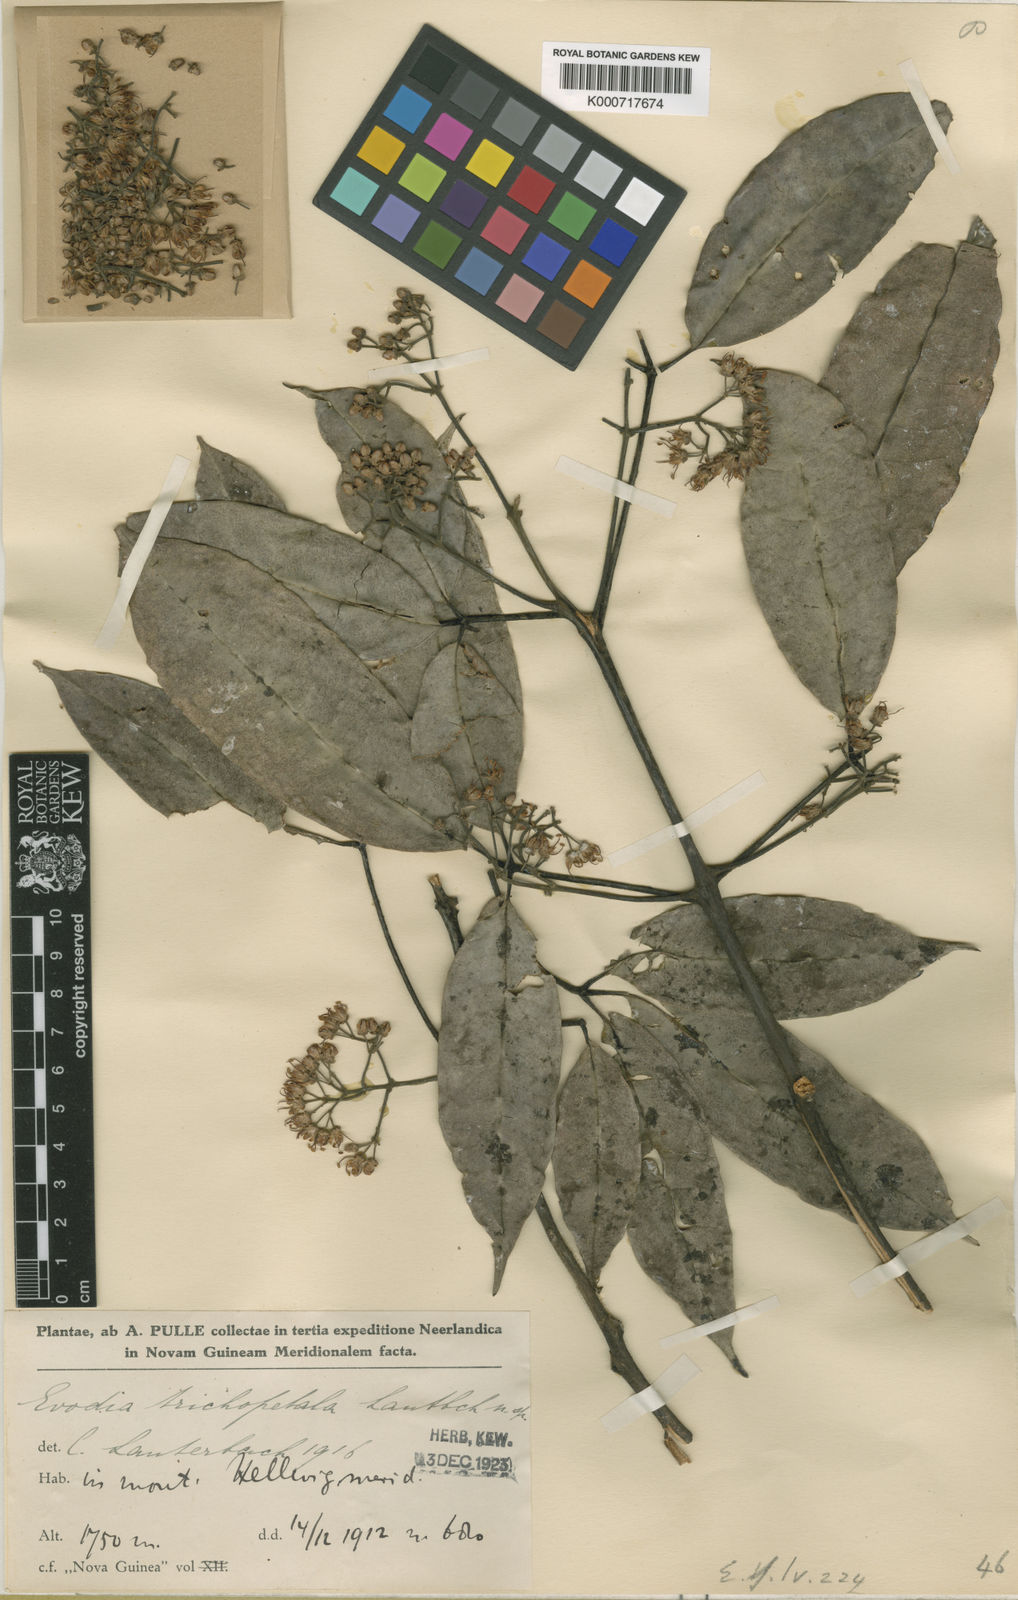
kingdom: Plantae
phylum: Tracheophyta
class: Magnoliopsida
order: Sapindales
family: Rutaceae
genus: Melicope
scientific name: Melicope trichopetala
